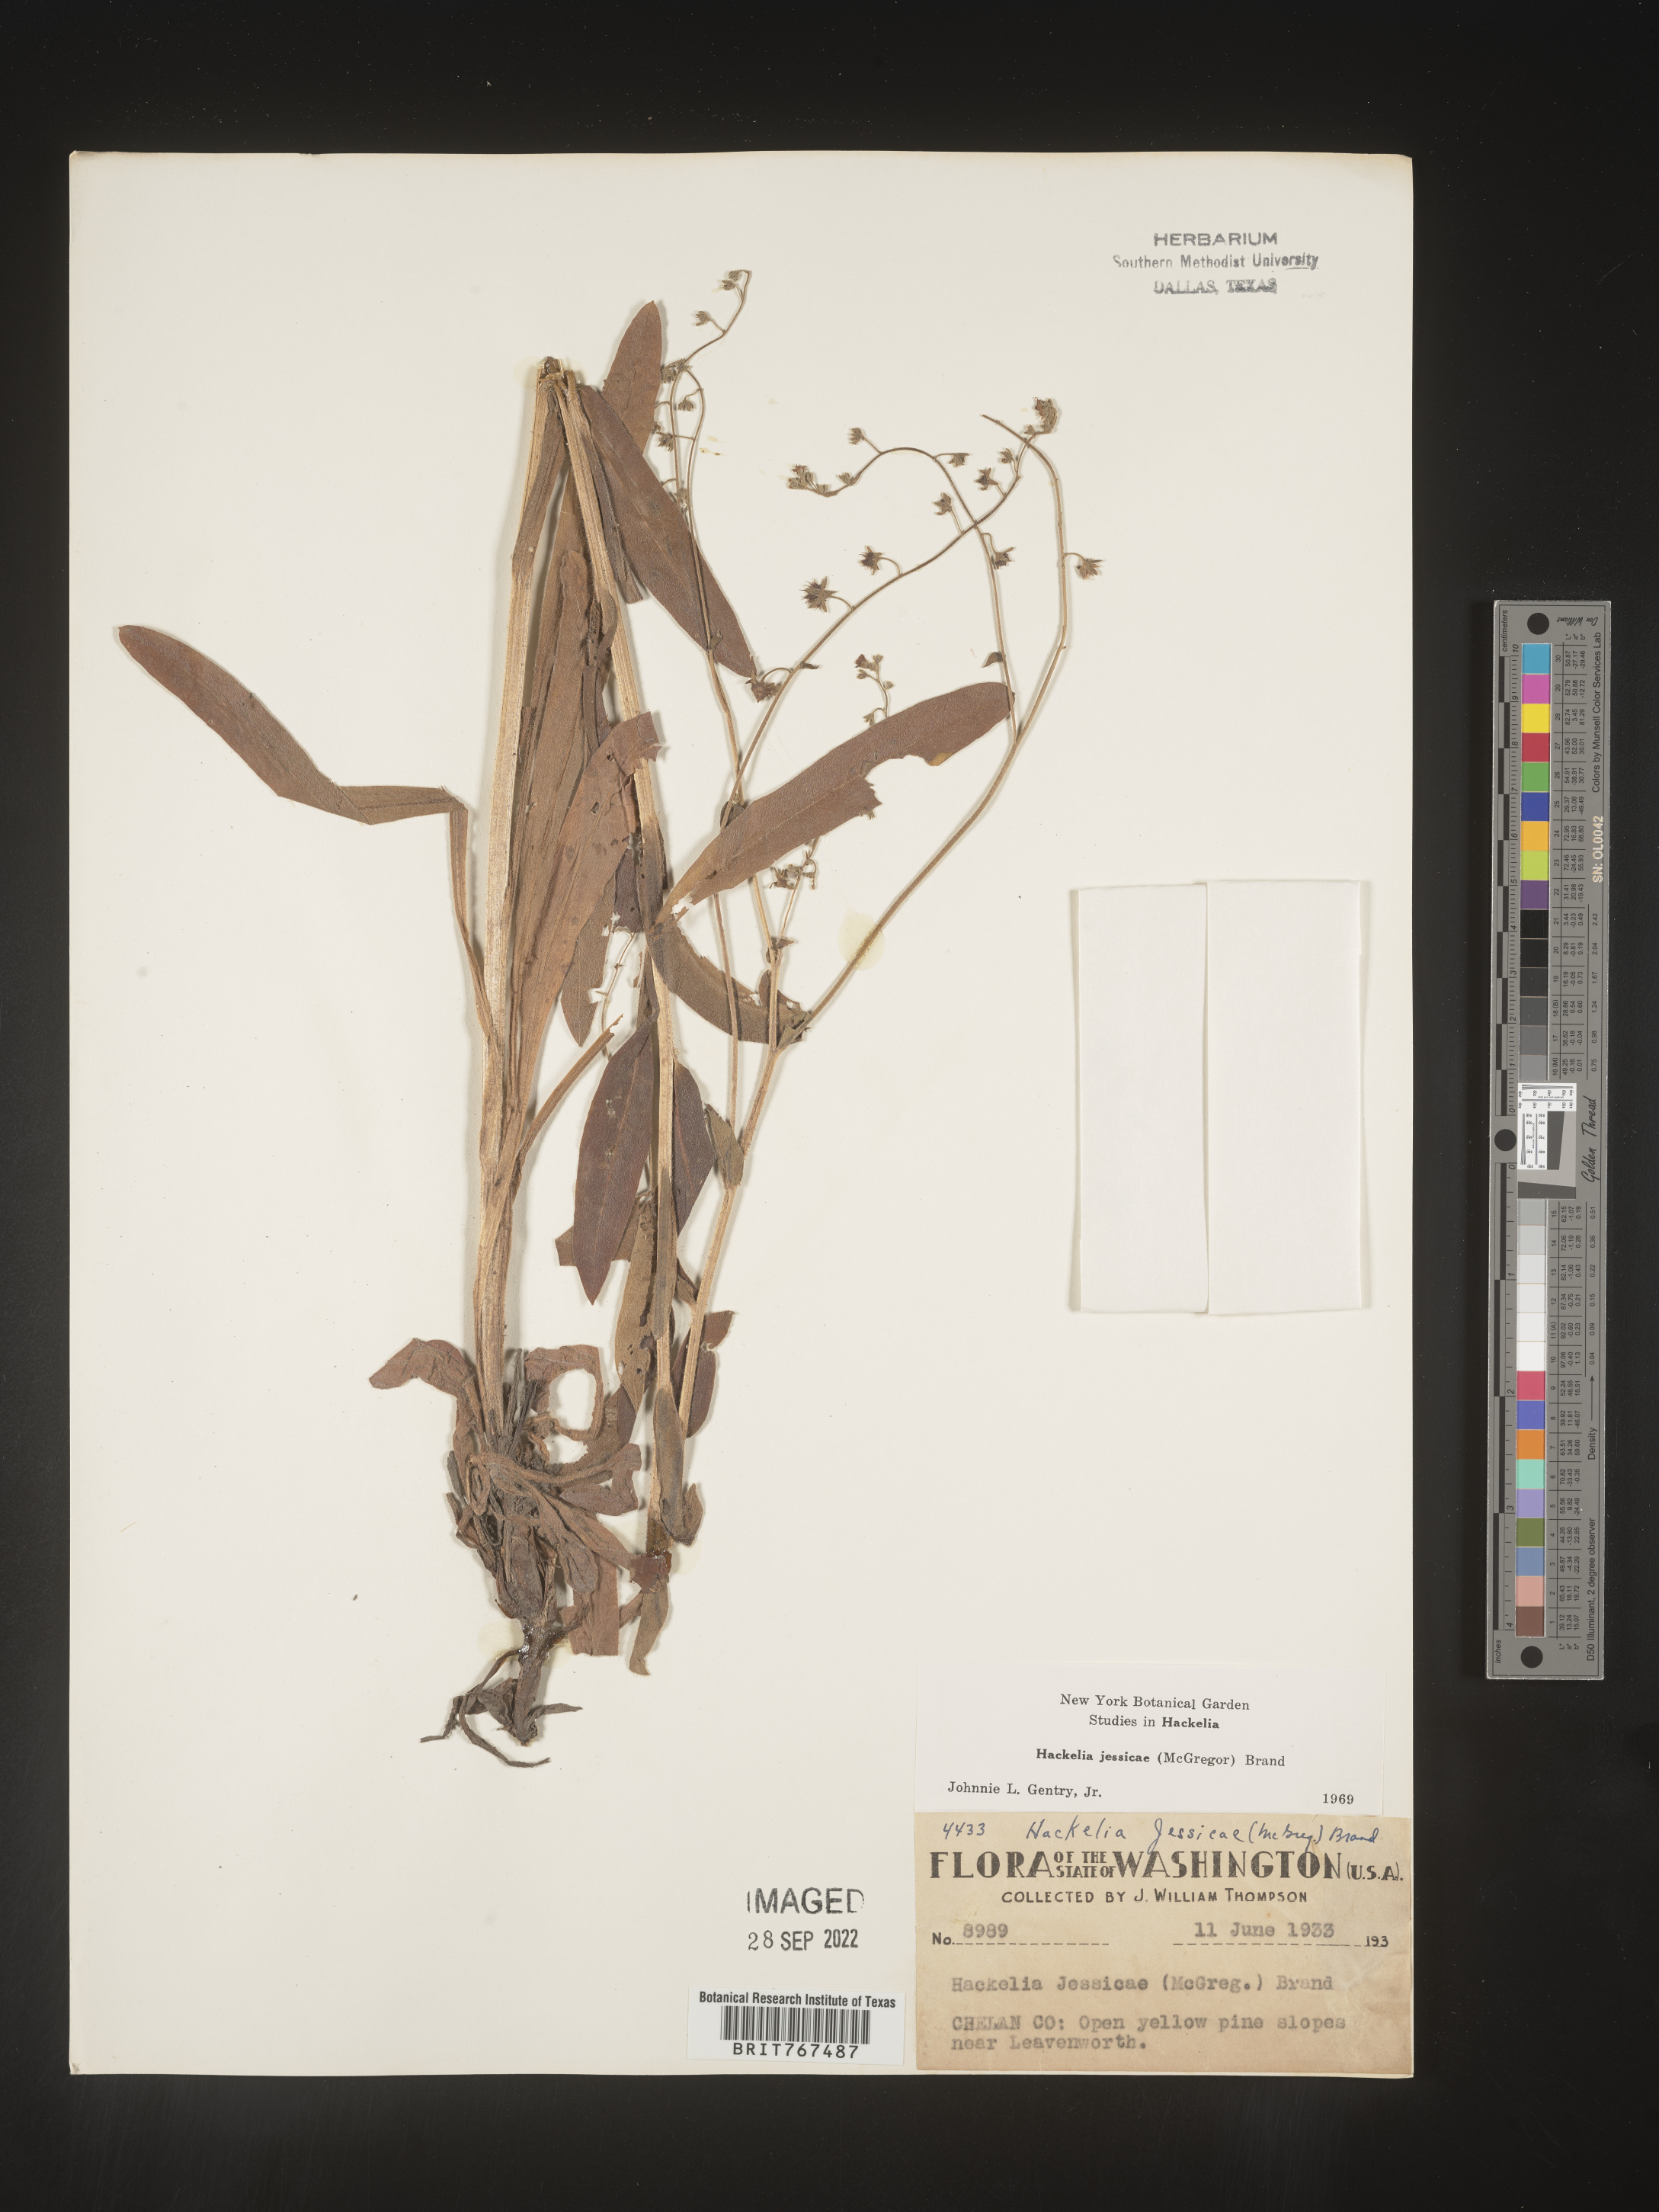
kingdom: Plantae
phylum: Tracheophyta
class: Magnoliopsida
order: Boraginales
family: Boraginaceae
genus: Hackelia
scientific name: Hackelia micrantha
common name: Meadow stickseed
